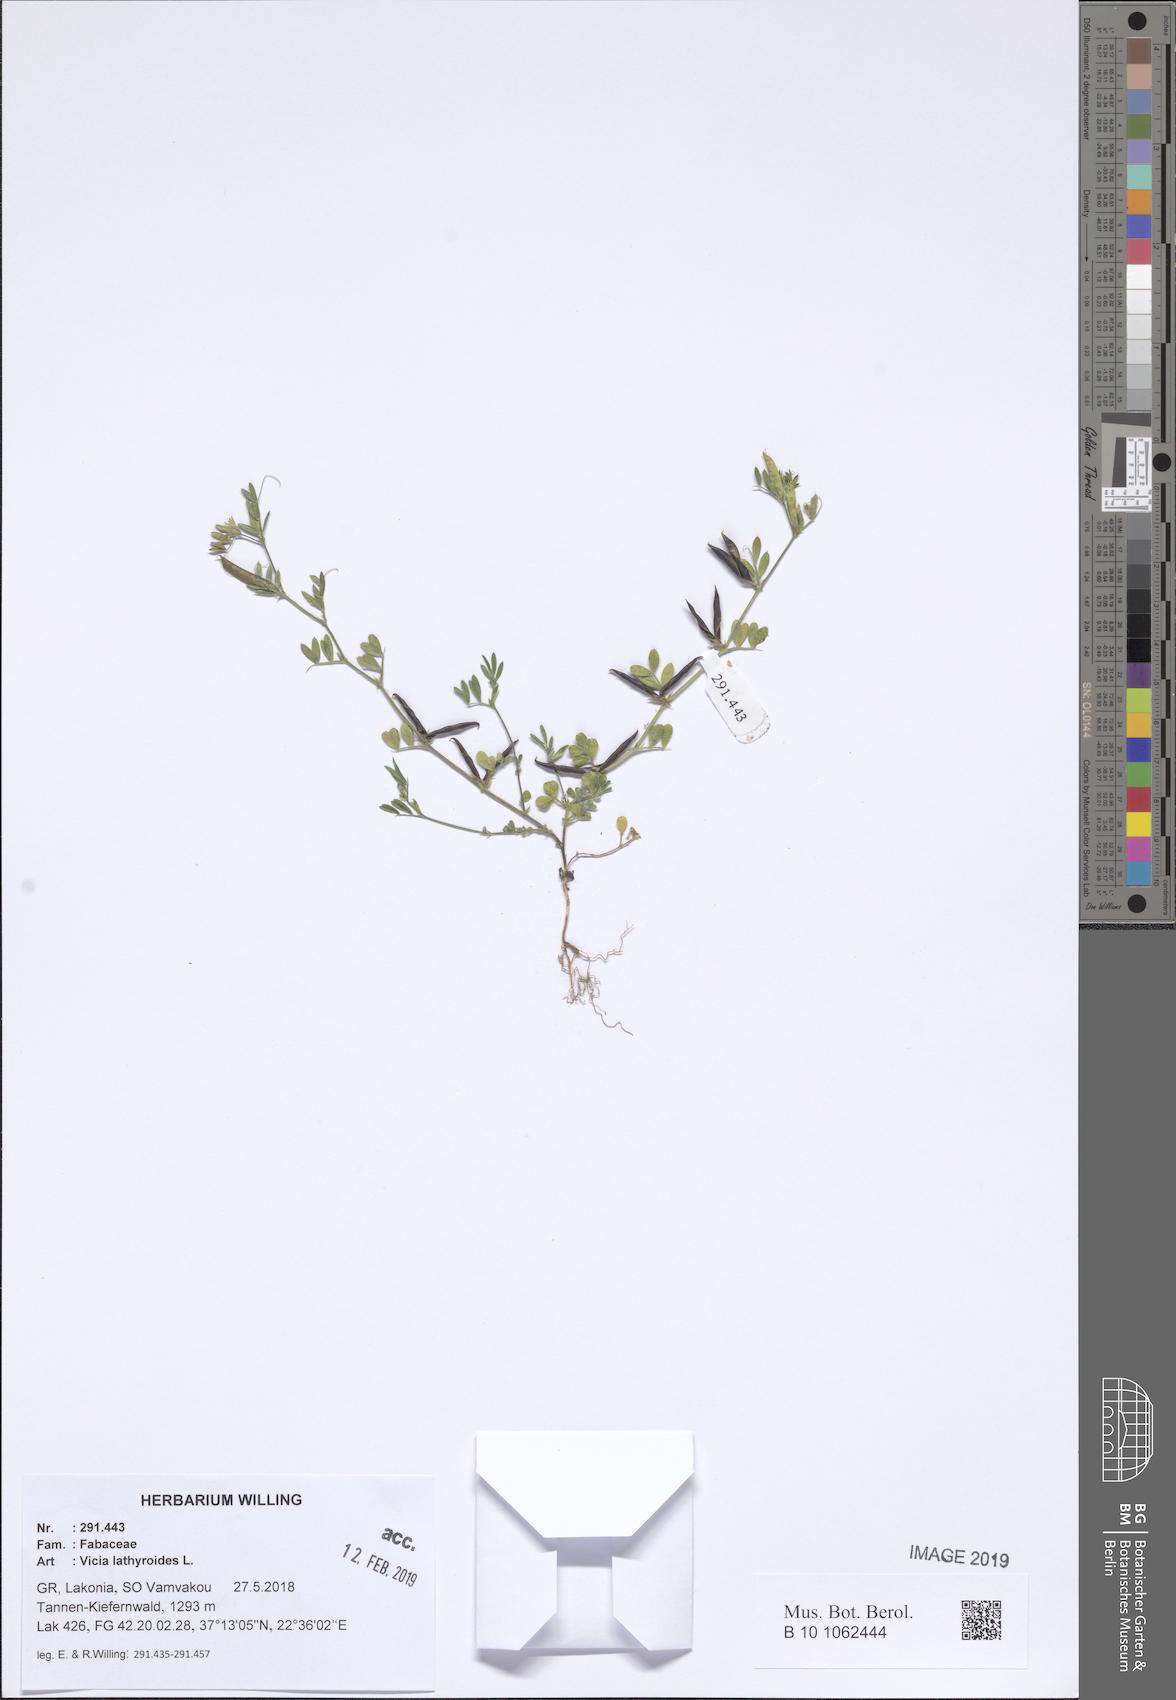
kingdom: Plantae
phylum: Tracheophyta
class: Magnoliopsida
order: Fabales
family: Fabaceae
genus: Vicia
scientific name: Vicia lathyroides
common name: Spring vetch
